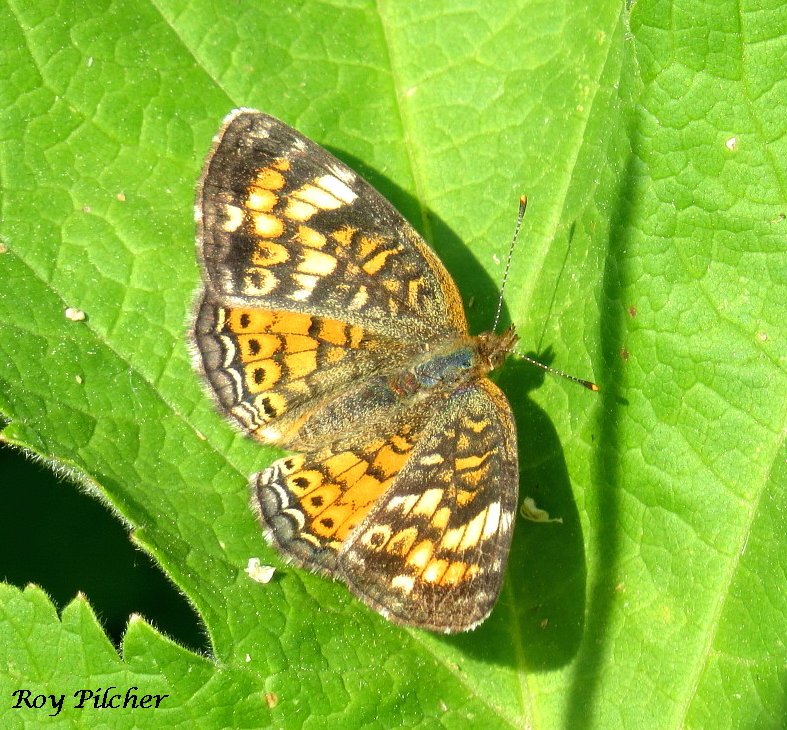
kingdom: Animalia
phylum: Arthropoda
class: Insecta
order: Lepidoptera
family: Nymphalidae
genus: Phyciodes
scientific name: Phyciodes tharos
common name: Pearl Crescent
